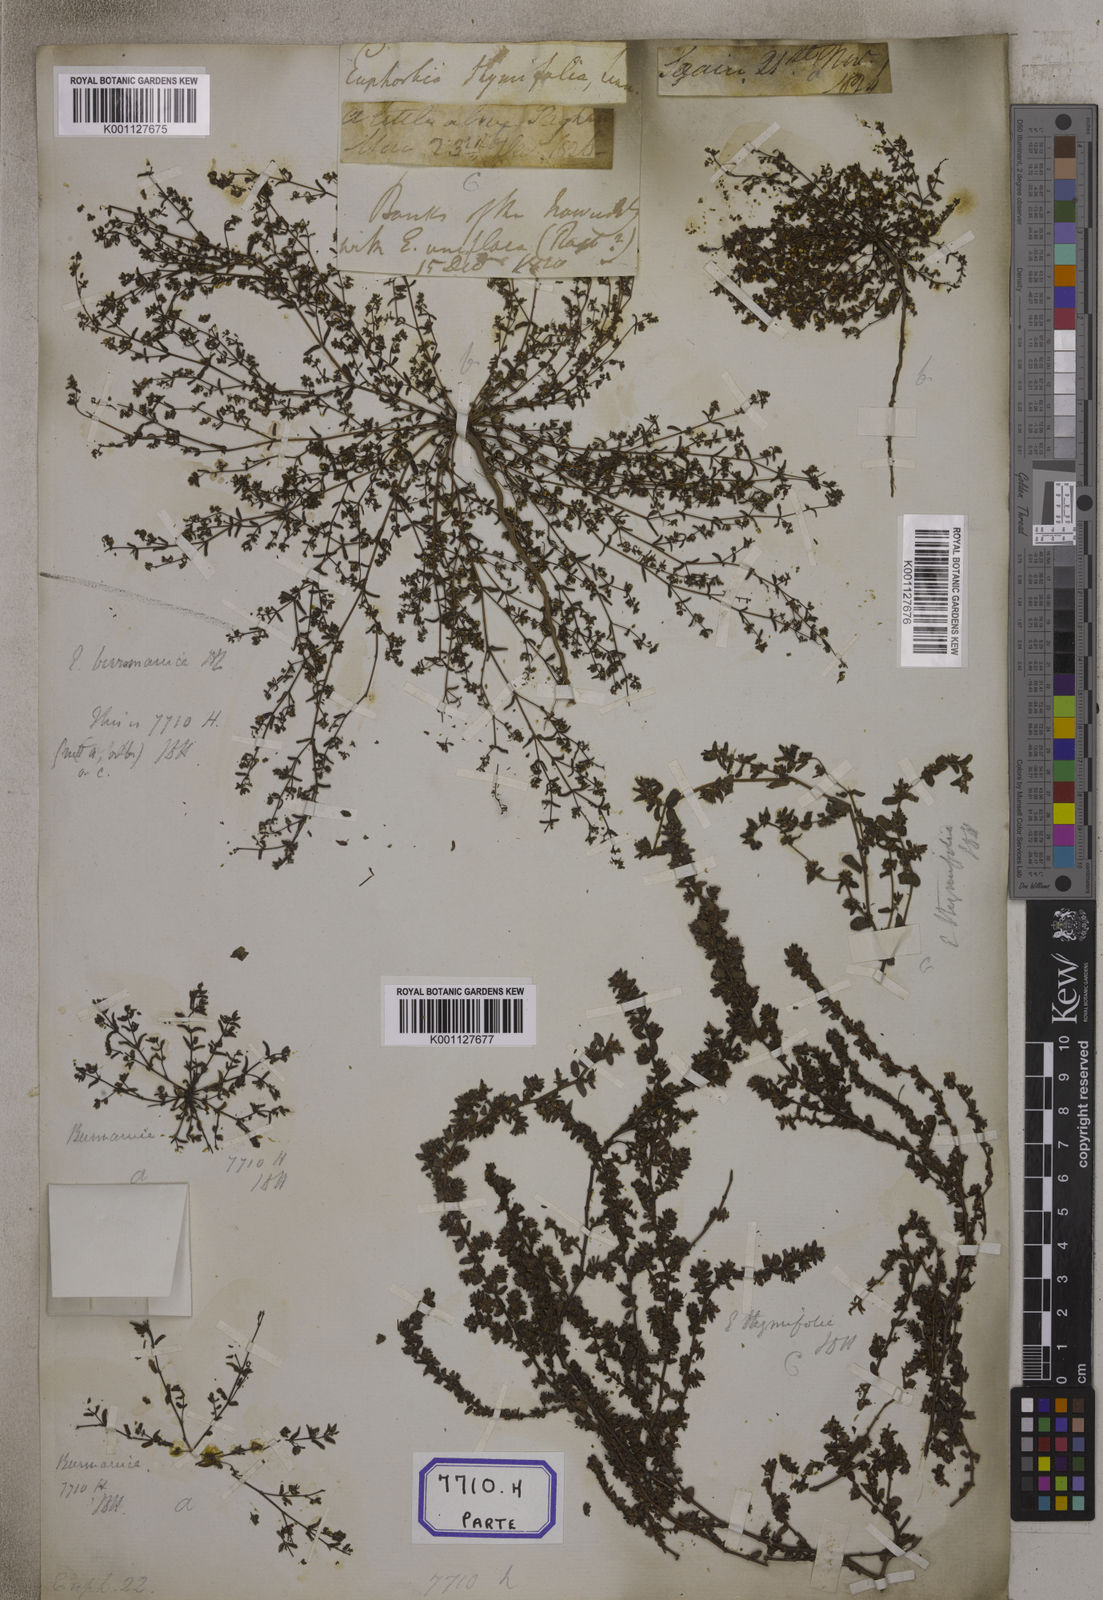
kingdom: Plantae
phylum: Tracheophyta
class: Magnoliopsida
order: Malpighiales
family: Euphorbiaceae
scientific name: Euphorbiaceae
